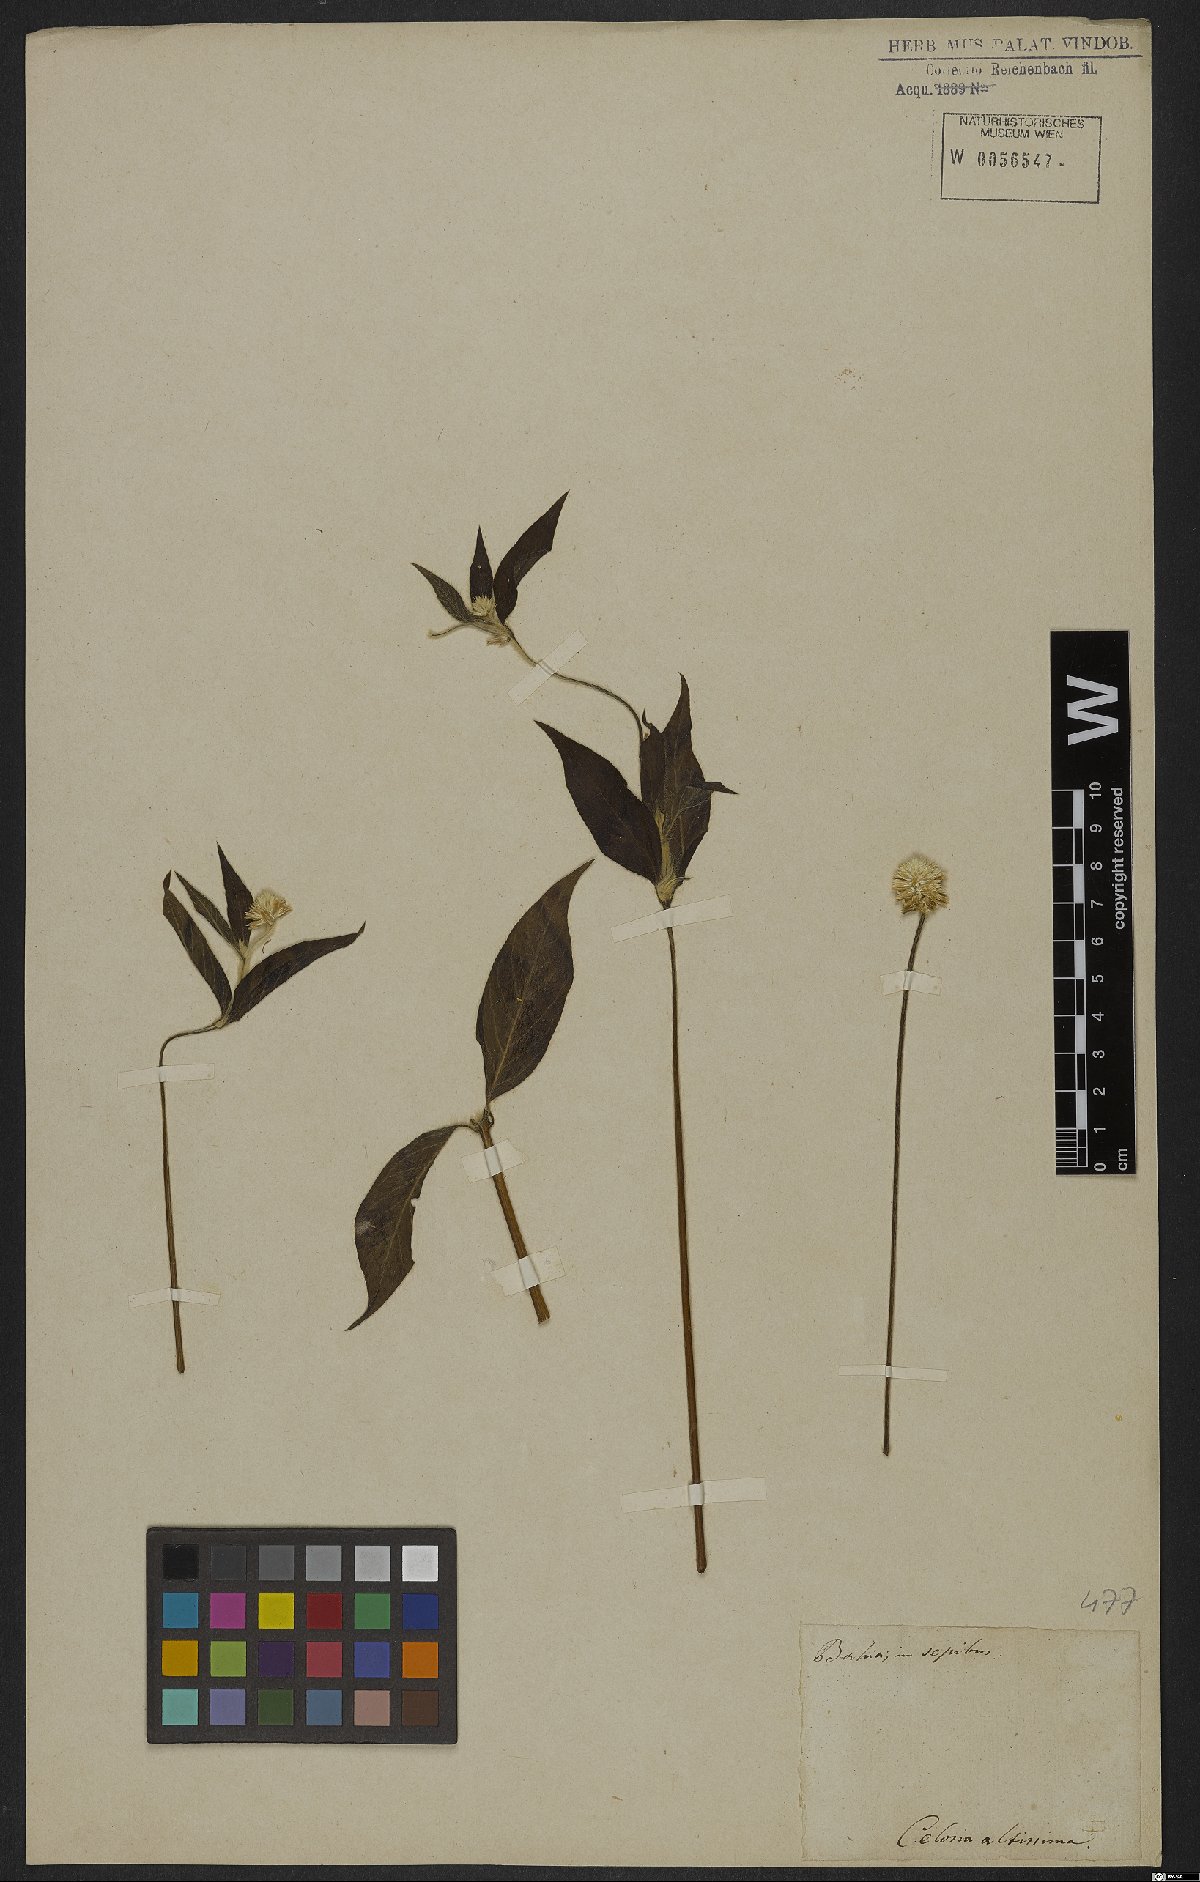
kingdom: Plantae
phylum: Tracheophyta
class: Magnoliopsida
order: Caryophyllales
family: Amaranthaceae
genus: Alternanthera
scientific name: Alternanthera brasiliana
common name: Brazilian joyweed
